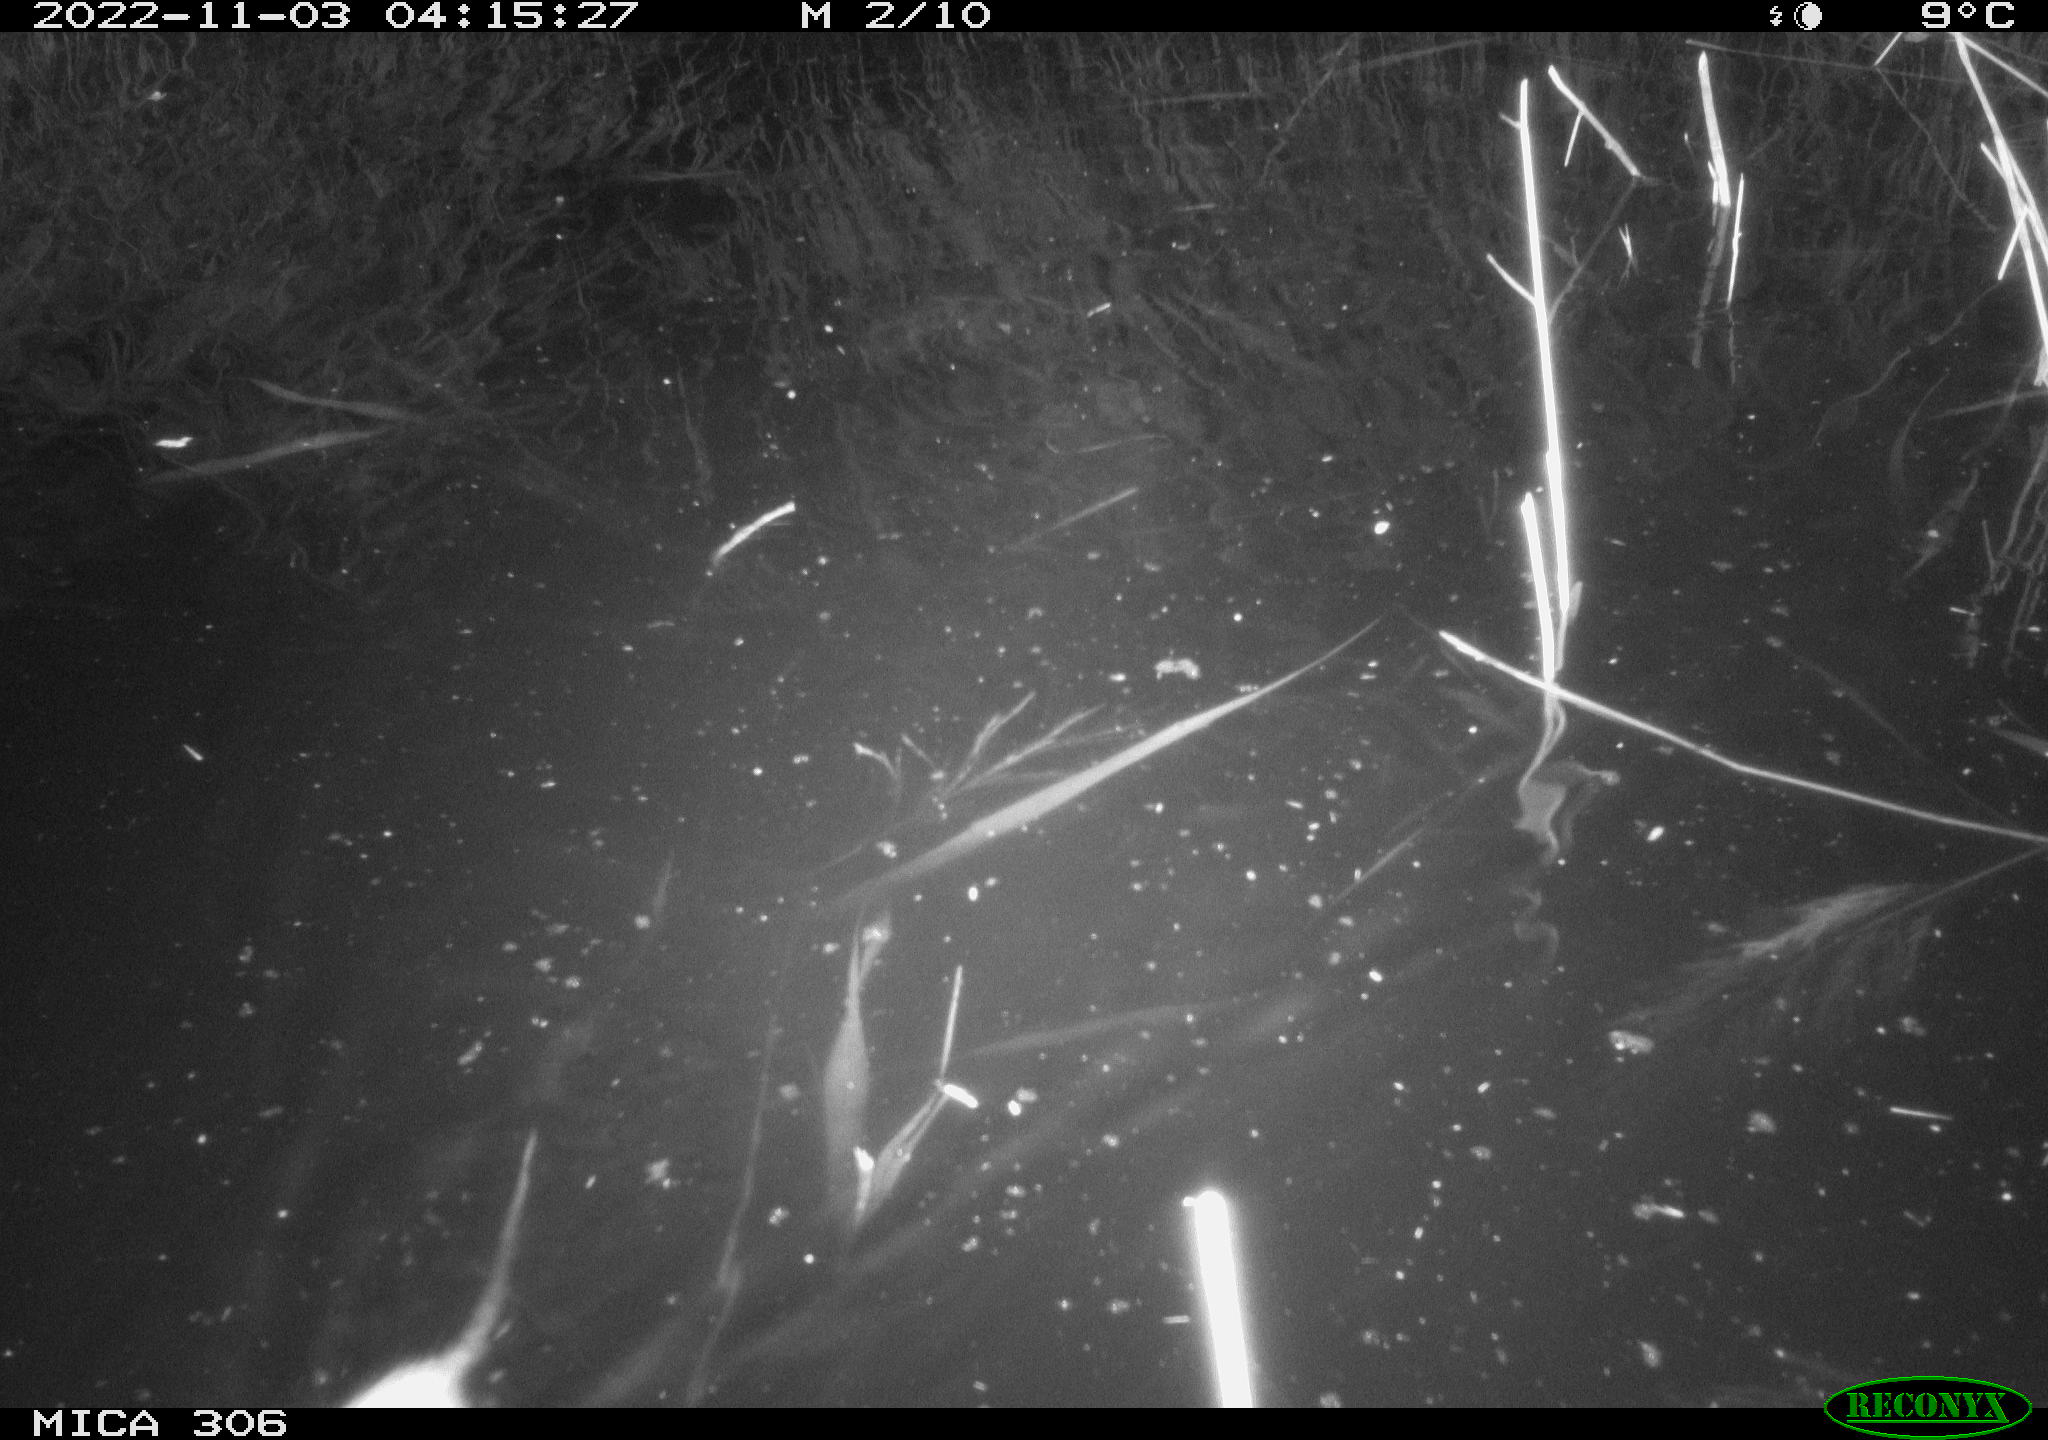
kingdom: Animalia
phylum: Chordata
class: Mammalia
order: Rodentia
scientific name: Rodentia
